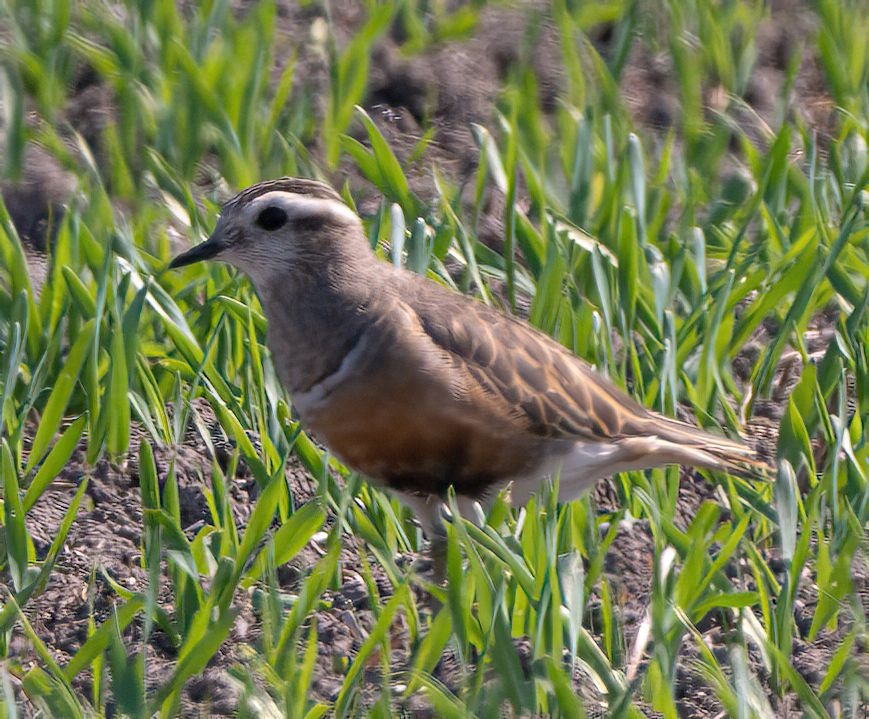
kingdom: Animalia
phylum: Chordata
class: Aves
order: Charadriiformes
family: Charadriidae
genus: Charadrius
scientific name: Charadrius morinellus
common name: Pomeransfugl
